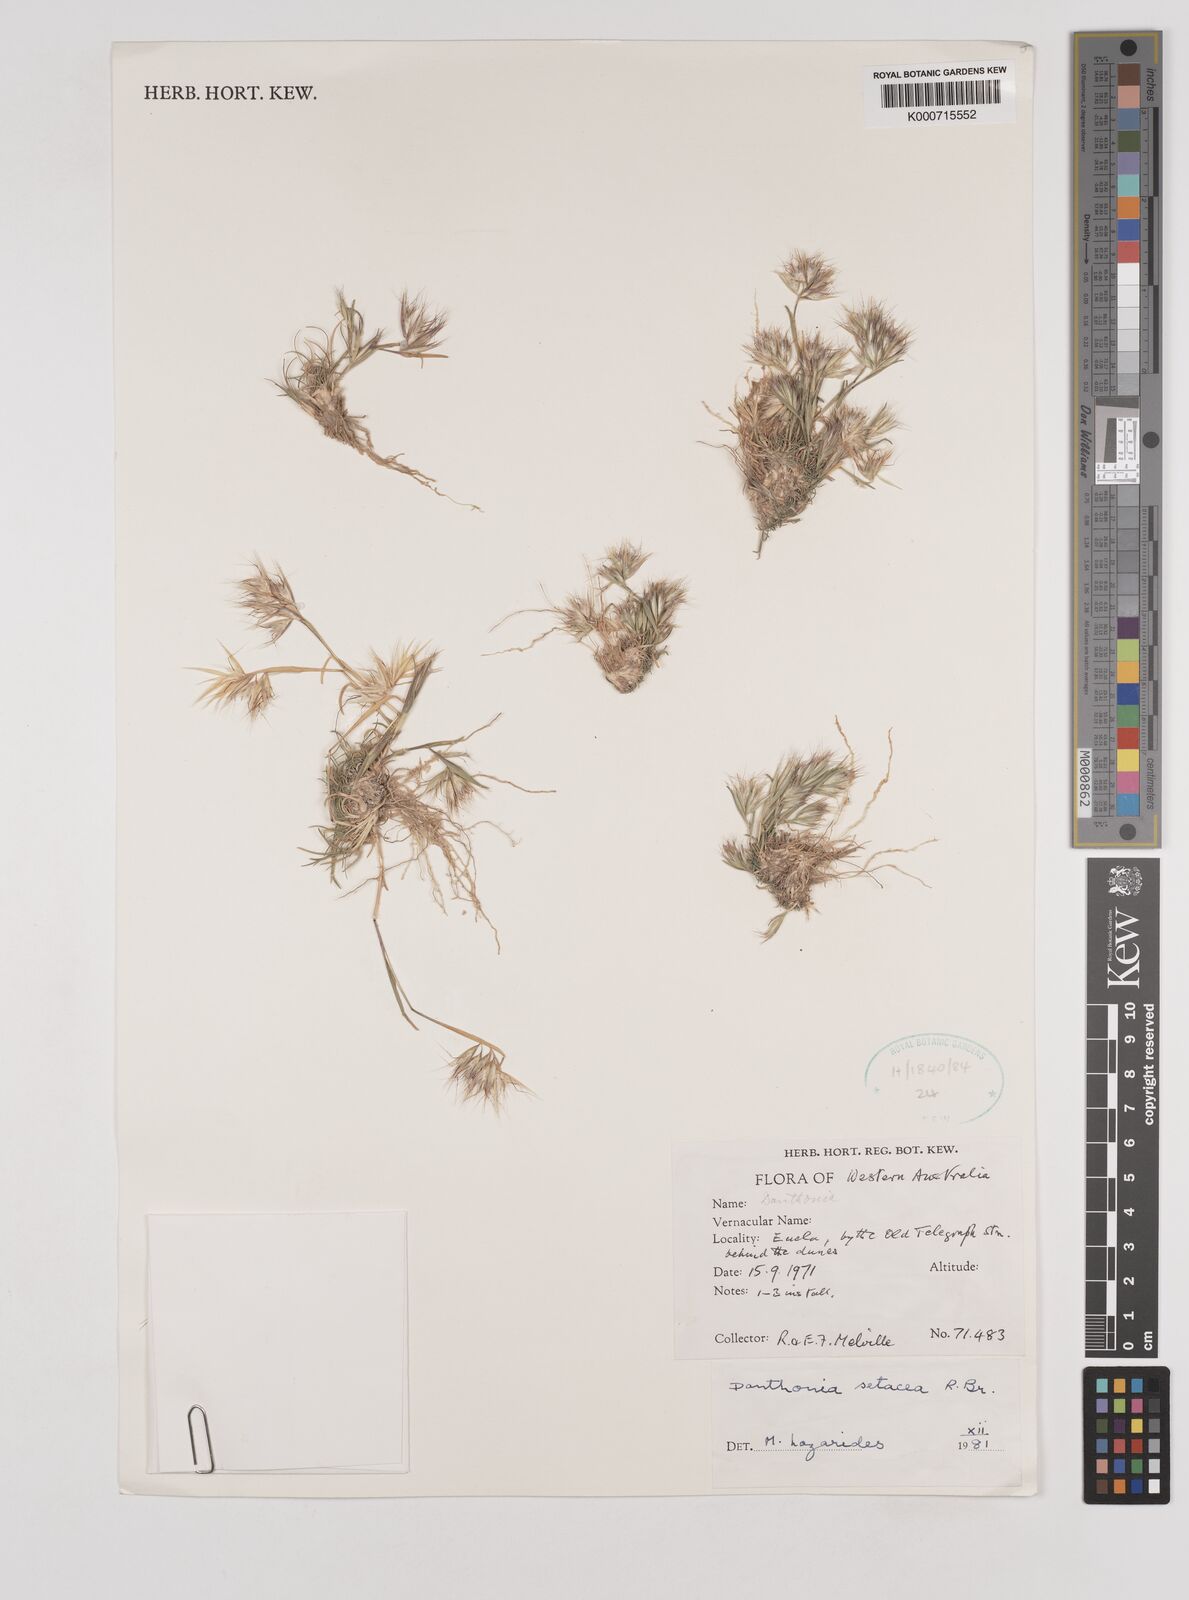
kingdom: Plantae
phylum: Tracheophyta
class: Liliopsida
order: Poales
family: Poaceae
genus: Rytidosperma
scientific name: Rytidosperma setaceum
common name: Small-flower wallaby grass
